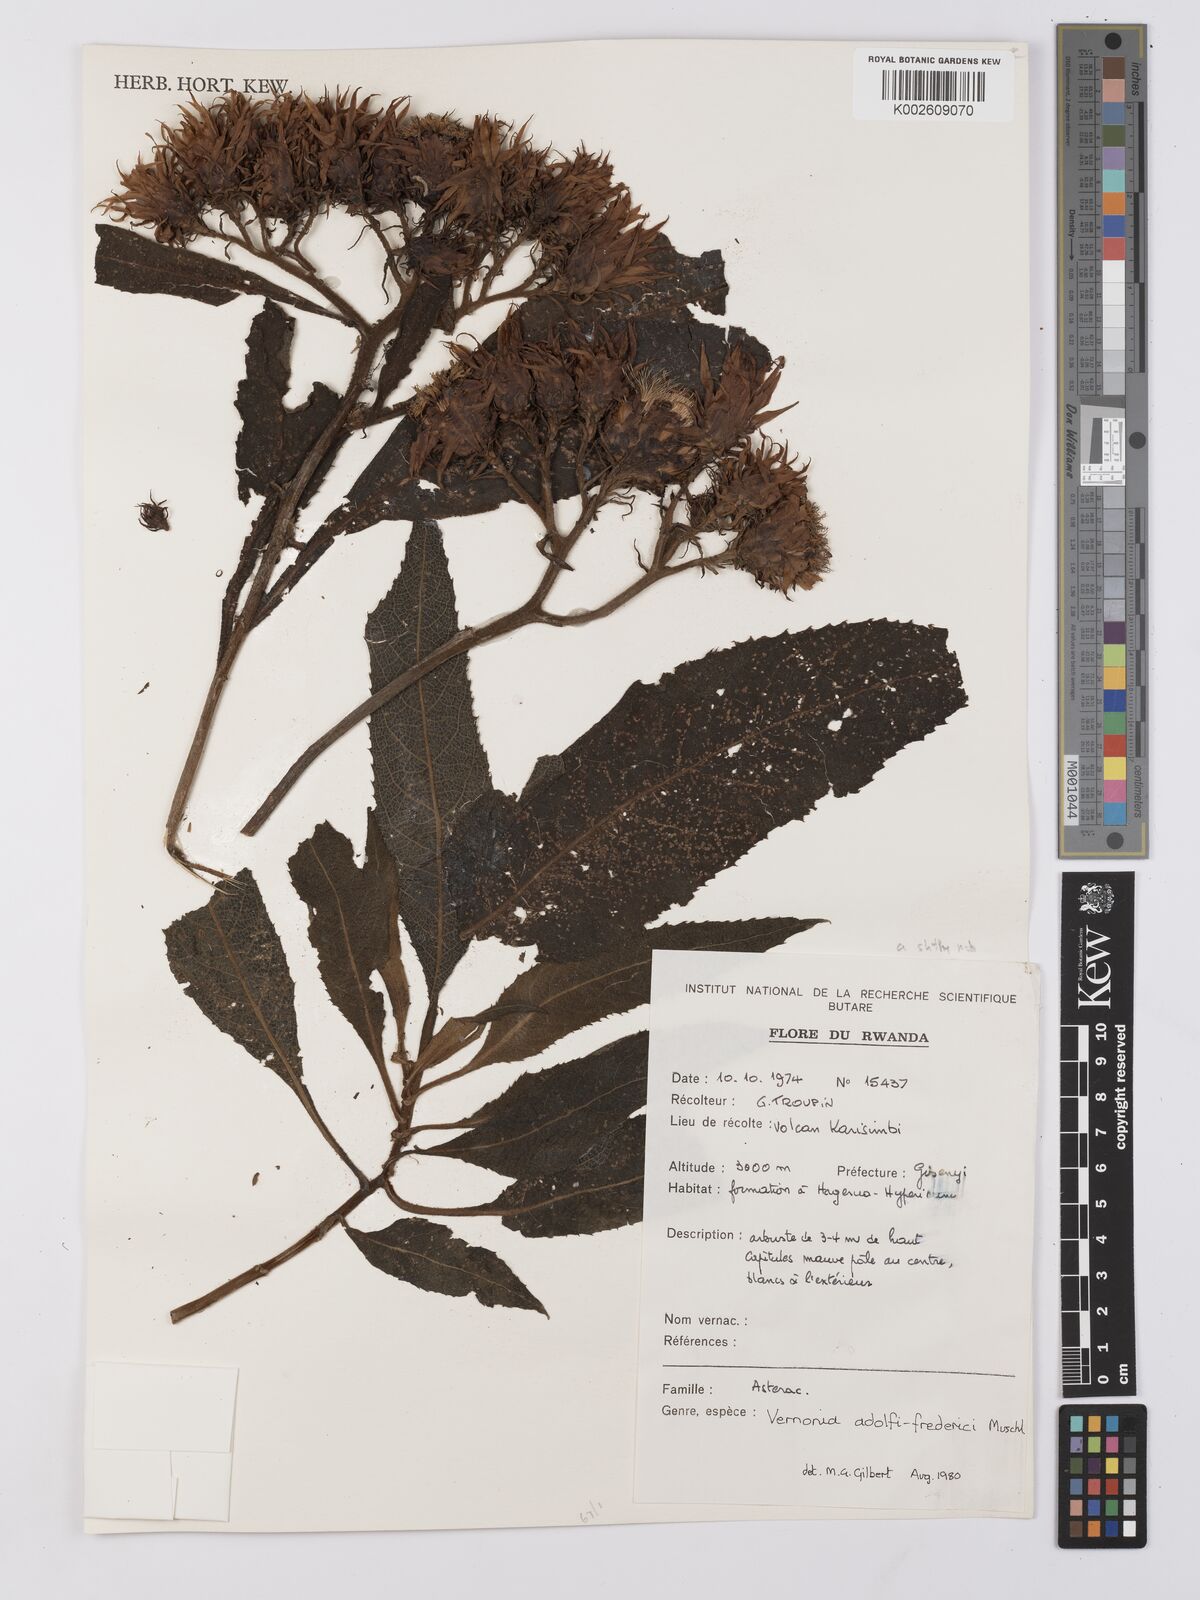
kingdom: Plantae
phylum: Tracheophyta
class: Magnoliopsida
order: Asterales
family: Asteraceae
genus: Baccharoides
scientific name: Baccharoides calvoana
